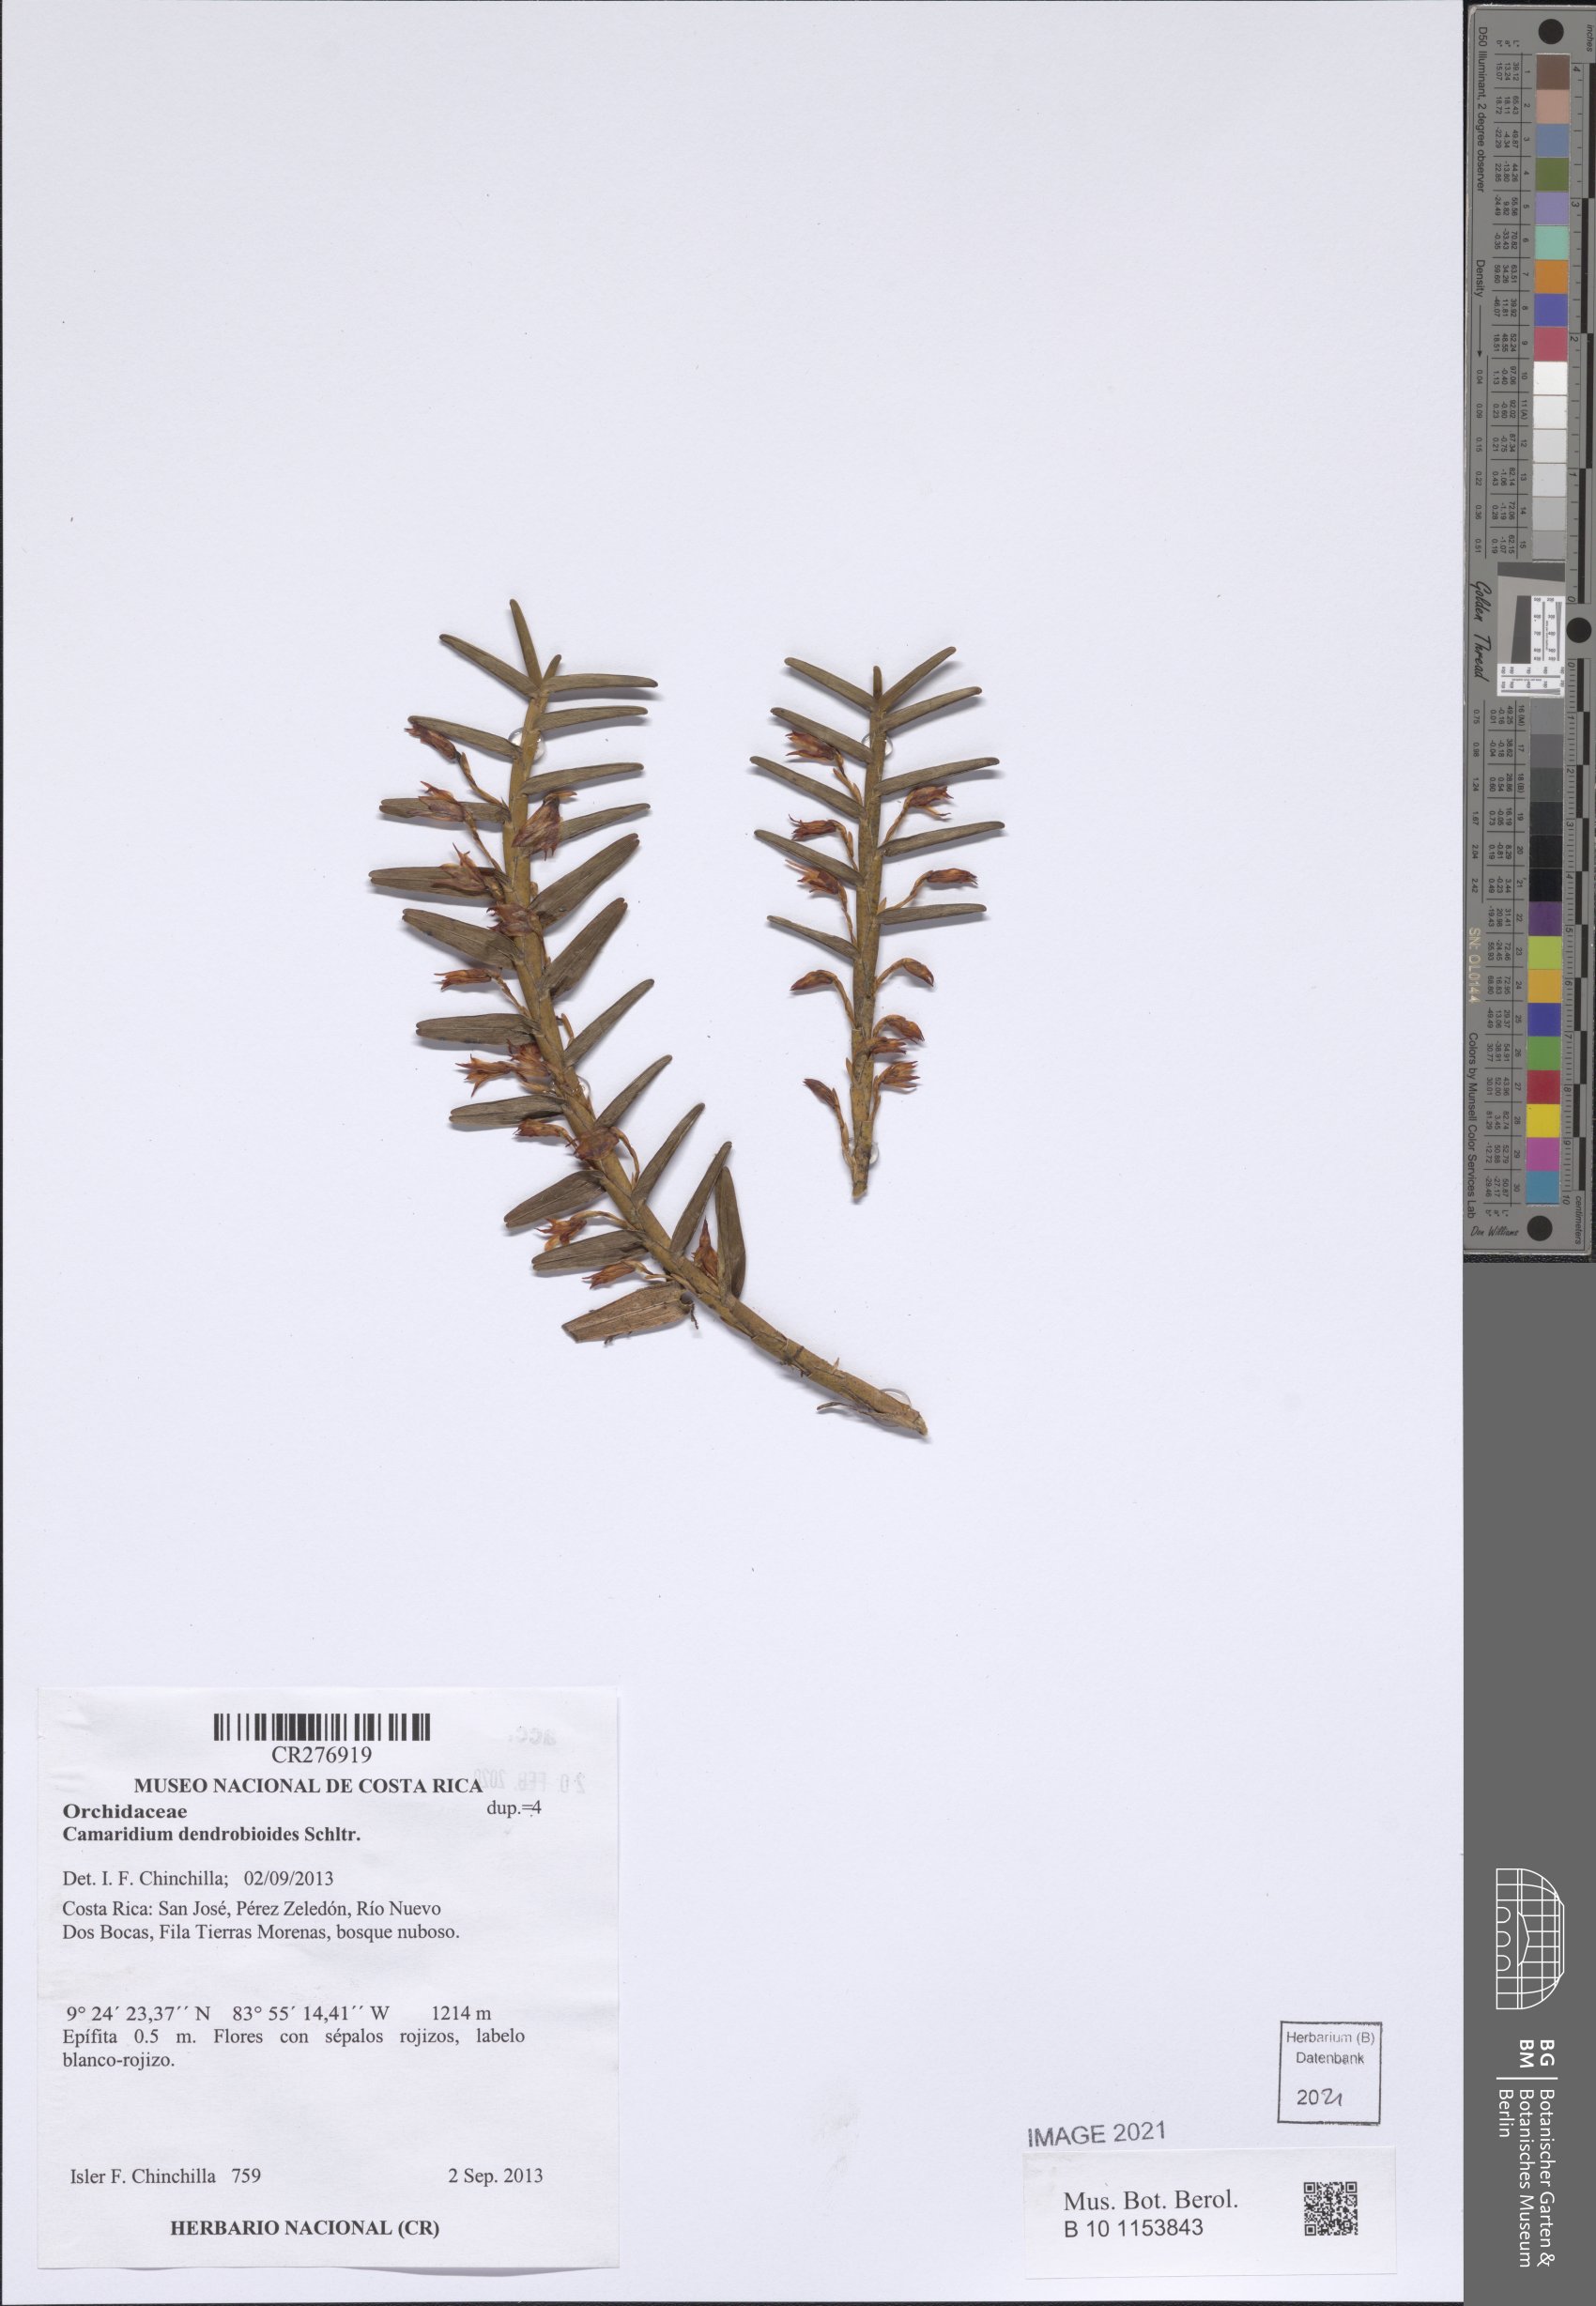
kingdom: Plantae
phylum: Tracheophyta
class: Liliopsida
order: Asparagales
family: Orchidaceae
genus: Maxillaria
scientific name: Maxillaria
